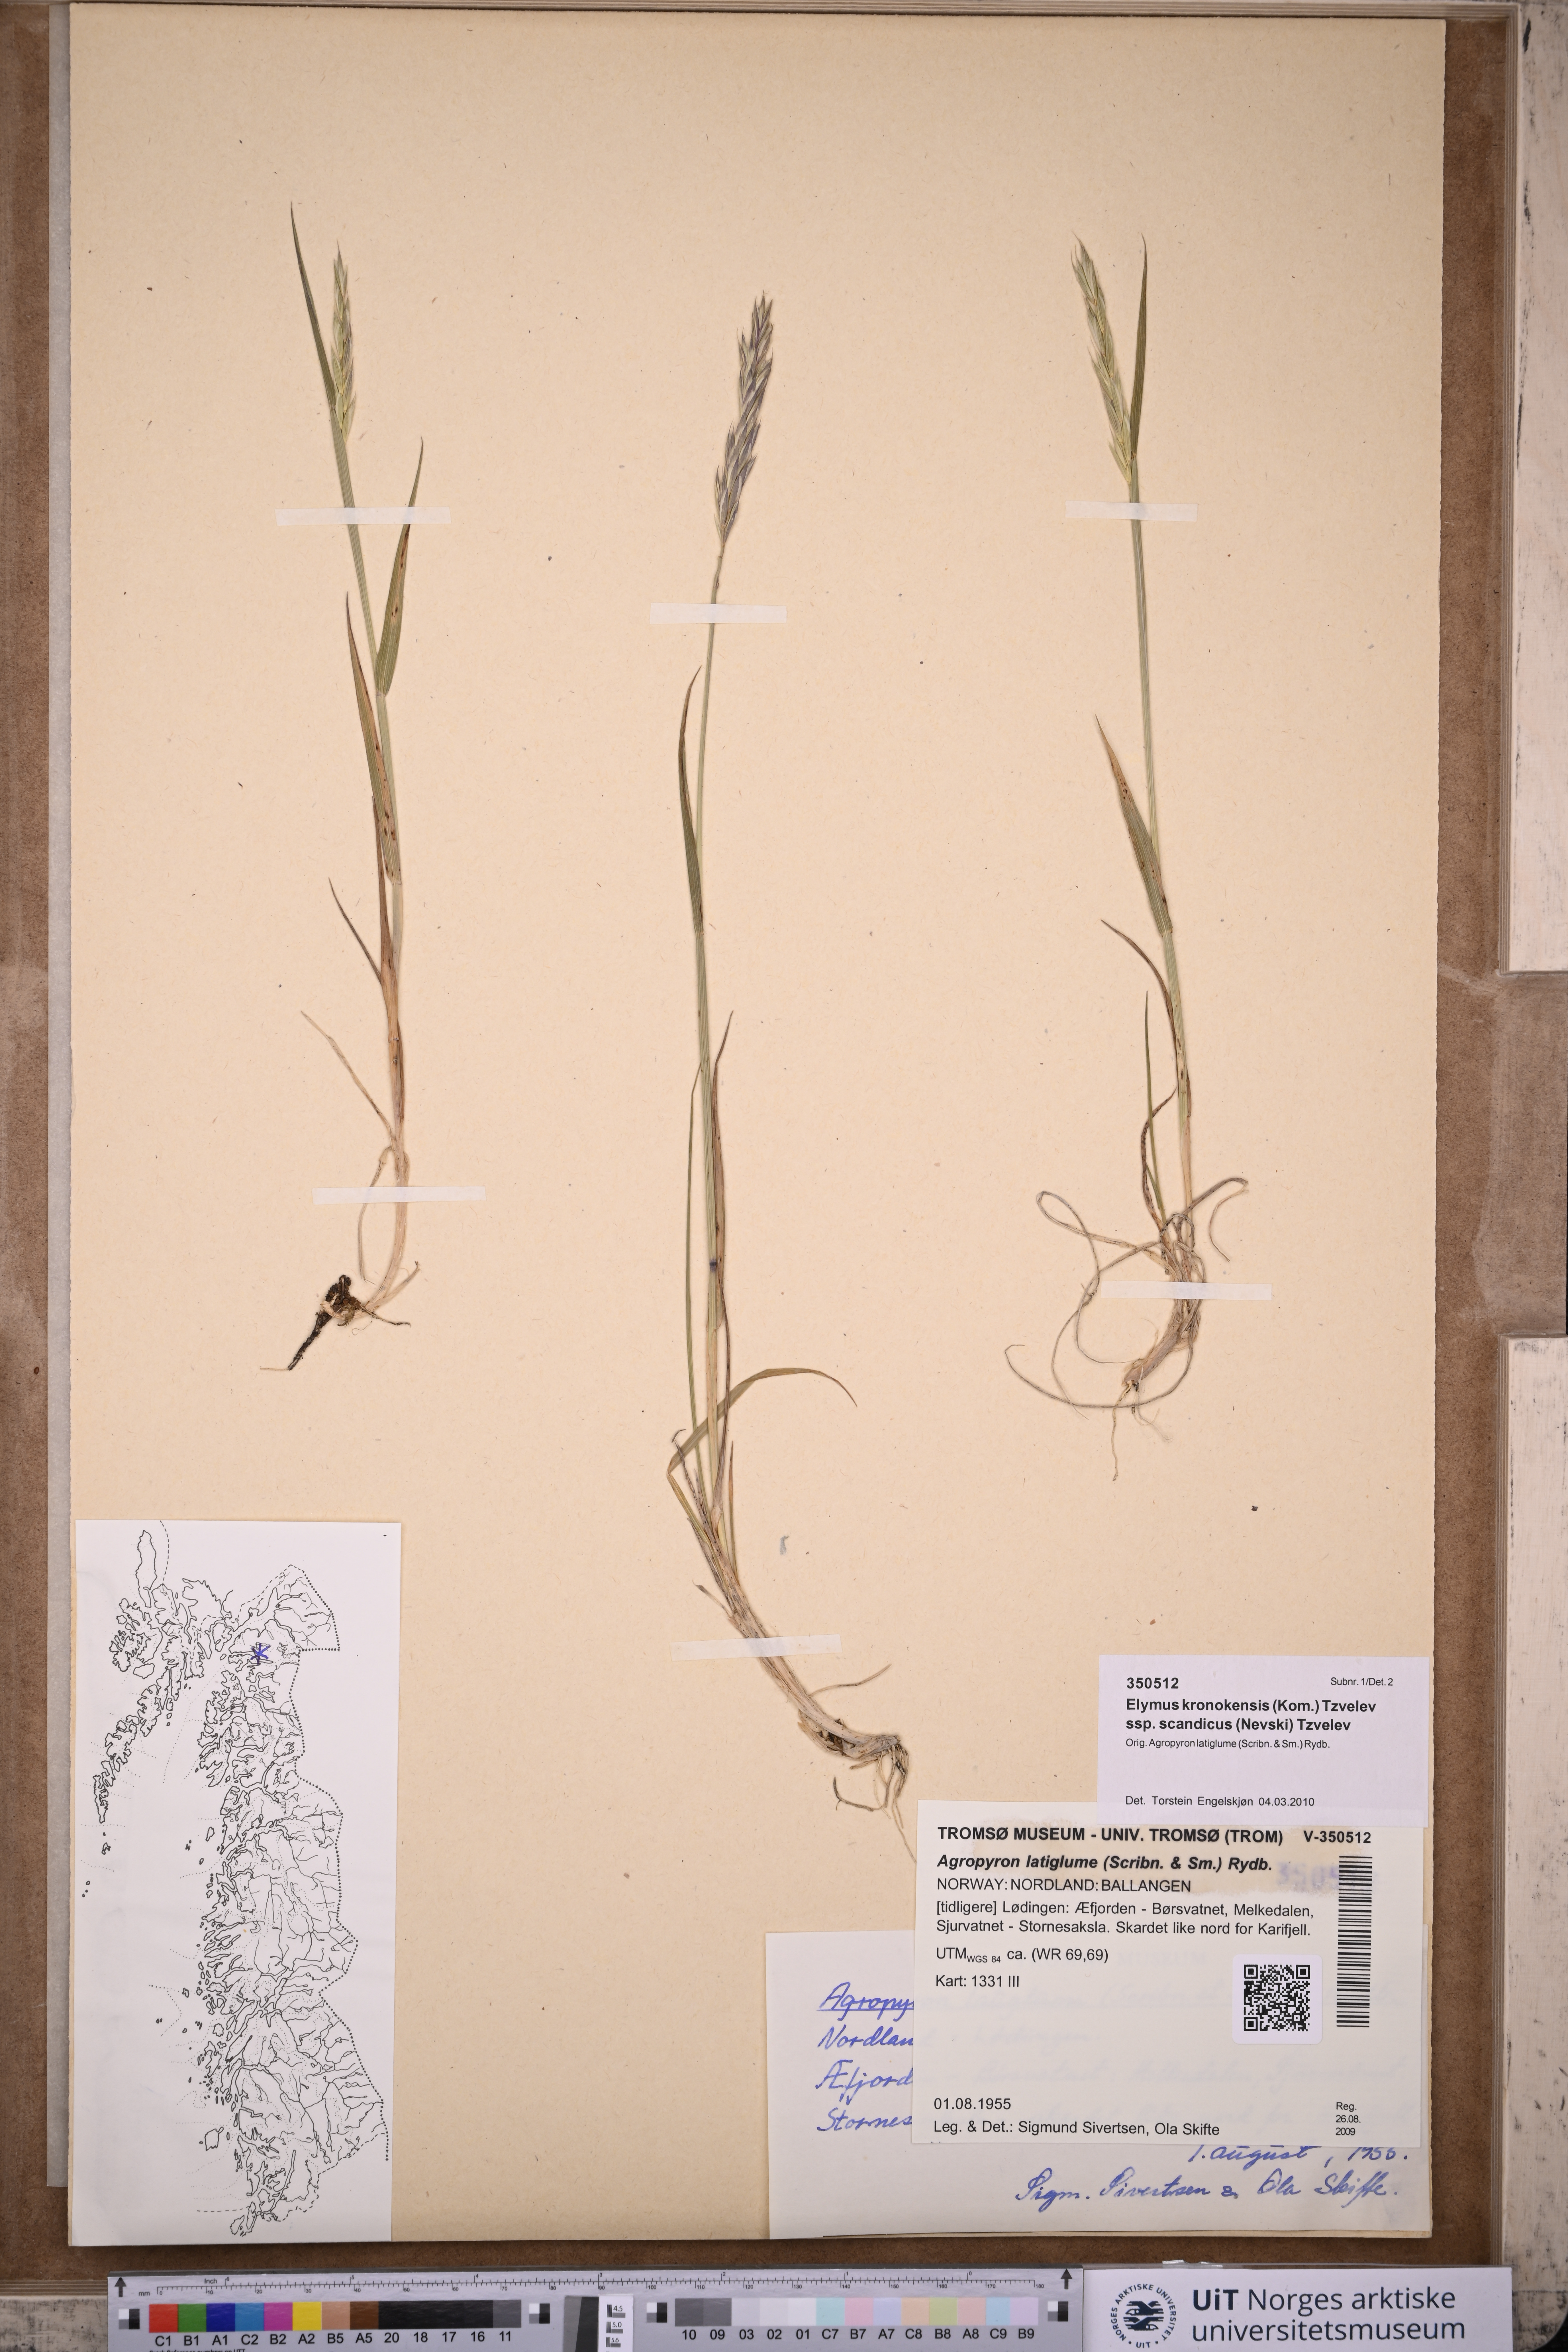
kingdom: Plantae
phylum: Tracheophyta
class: Liliopsida
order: Poales
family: Poaceae
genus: Elymus
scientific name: Elymus macrourus
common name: Northern wheatgrass
